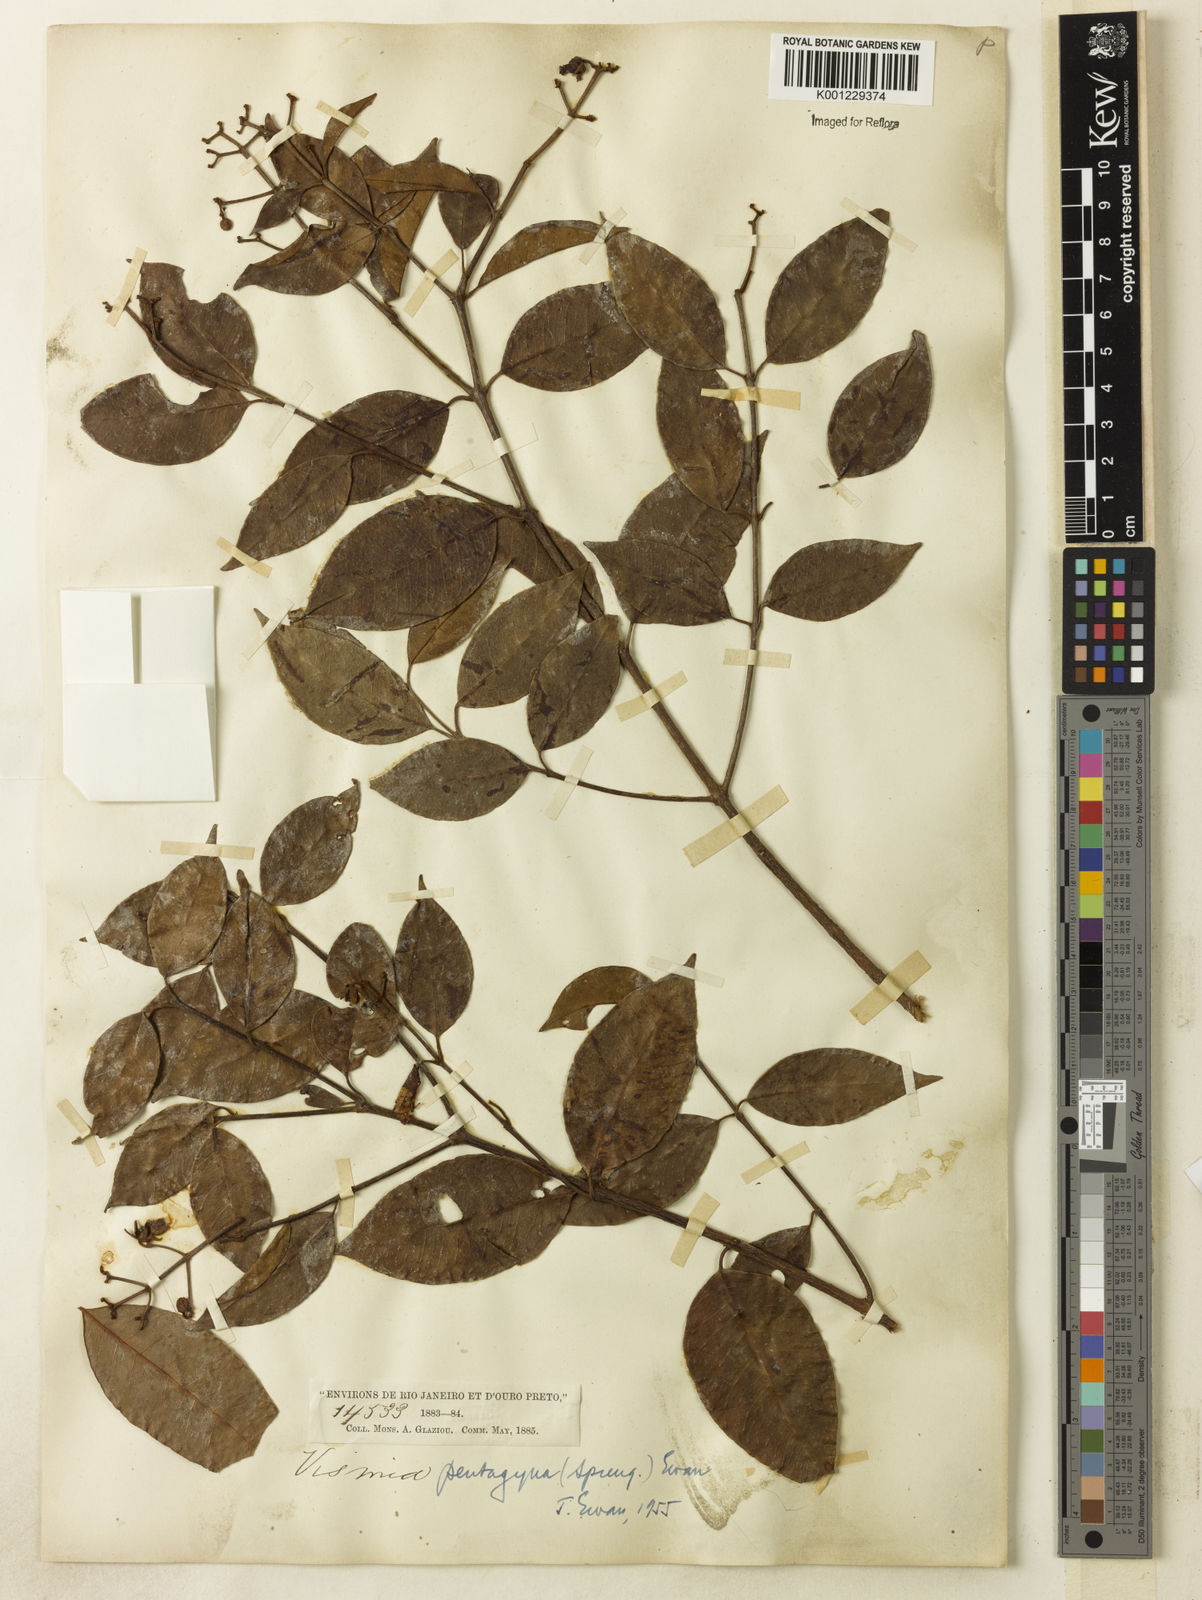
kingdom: Plantae
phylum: Tracheophyta
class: Magnoliopsida
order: Malpighiales
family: Hypericaceae
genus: Vismia
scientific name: Vismia pentagyna
